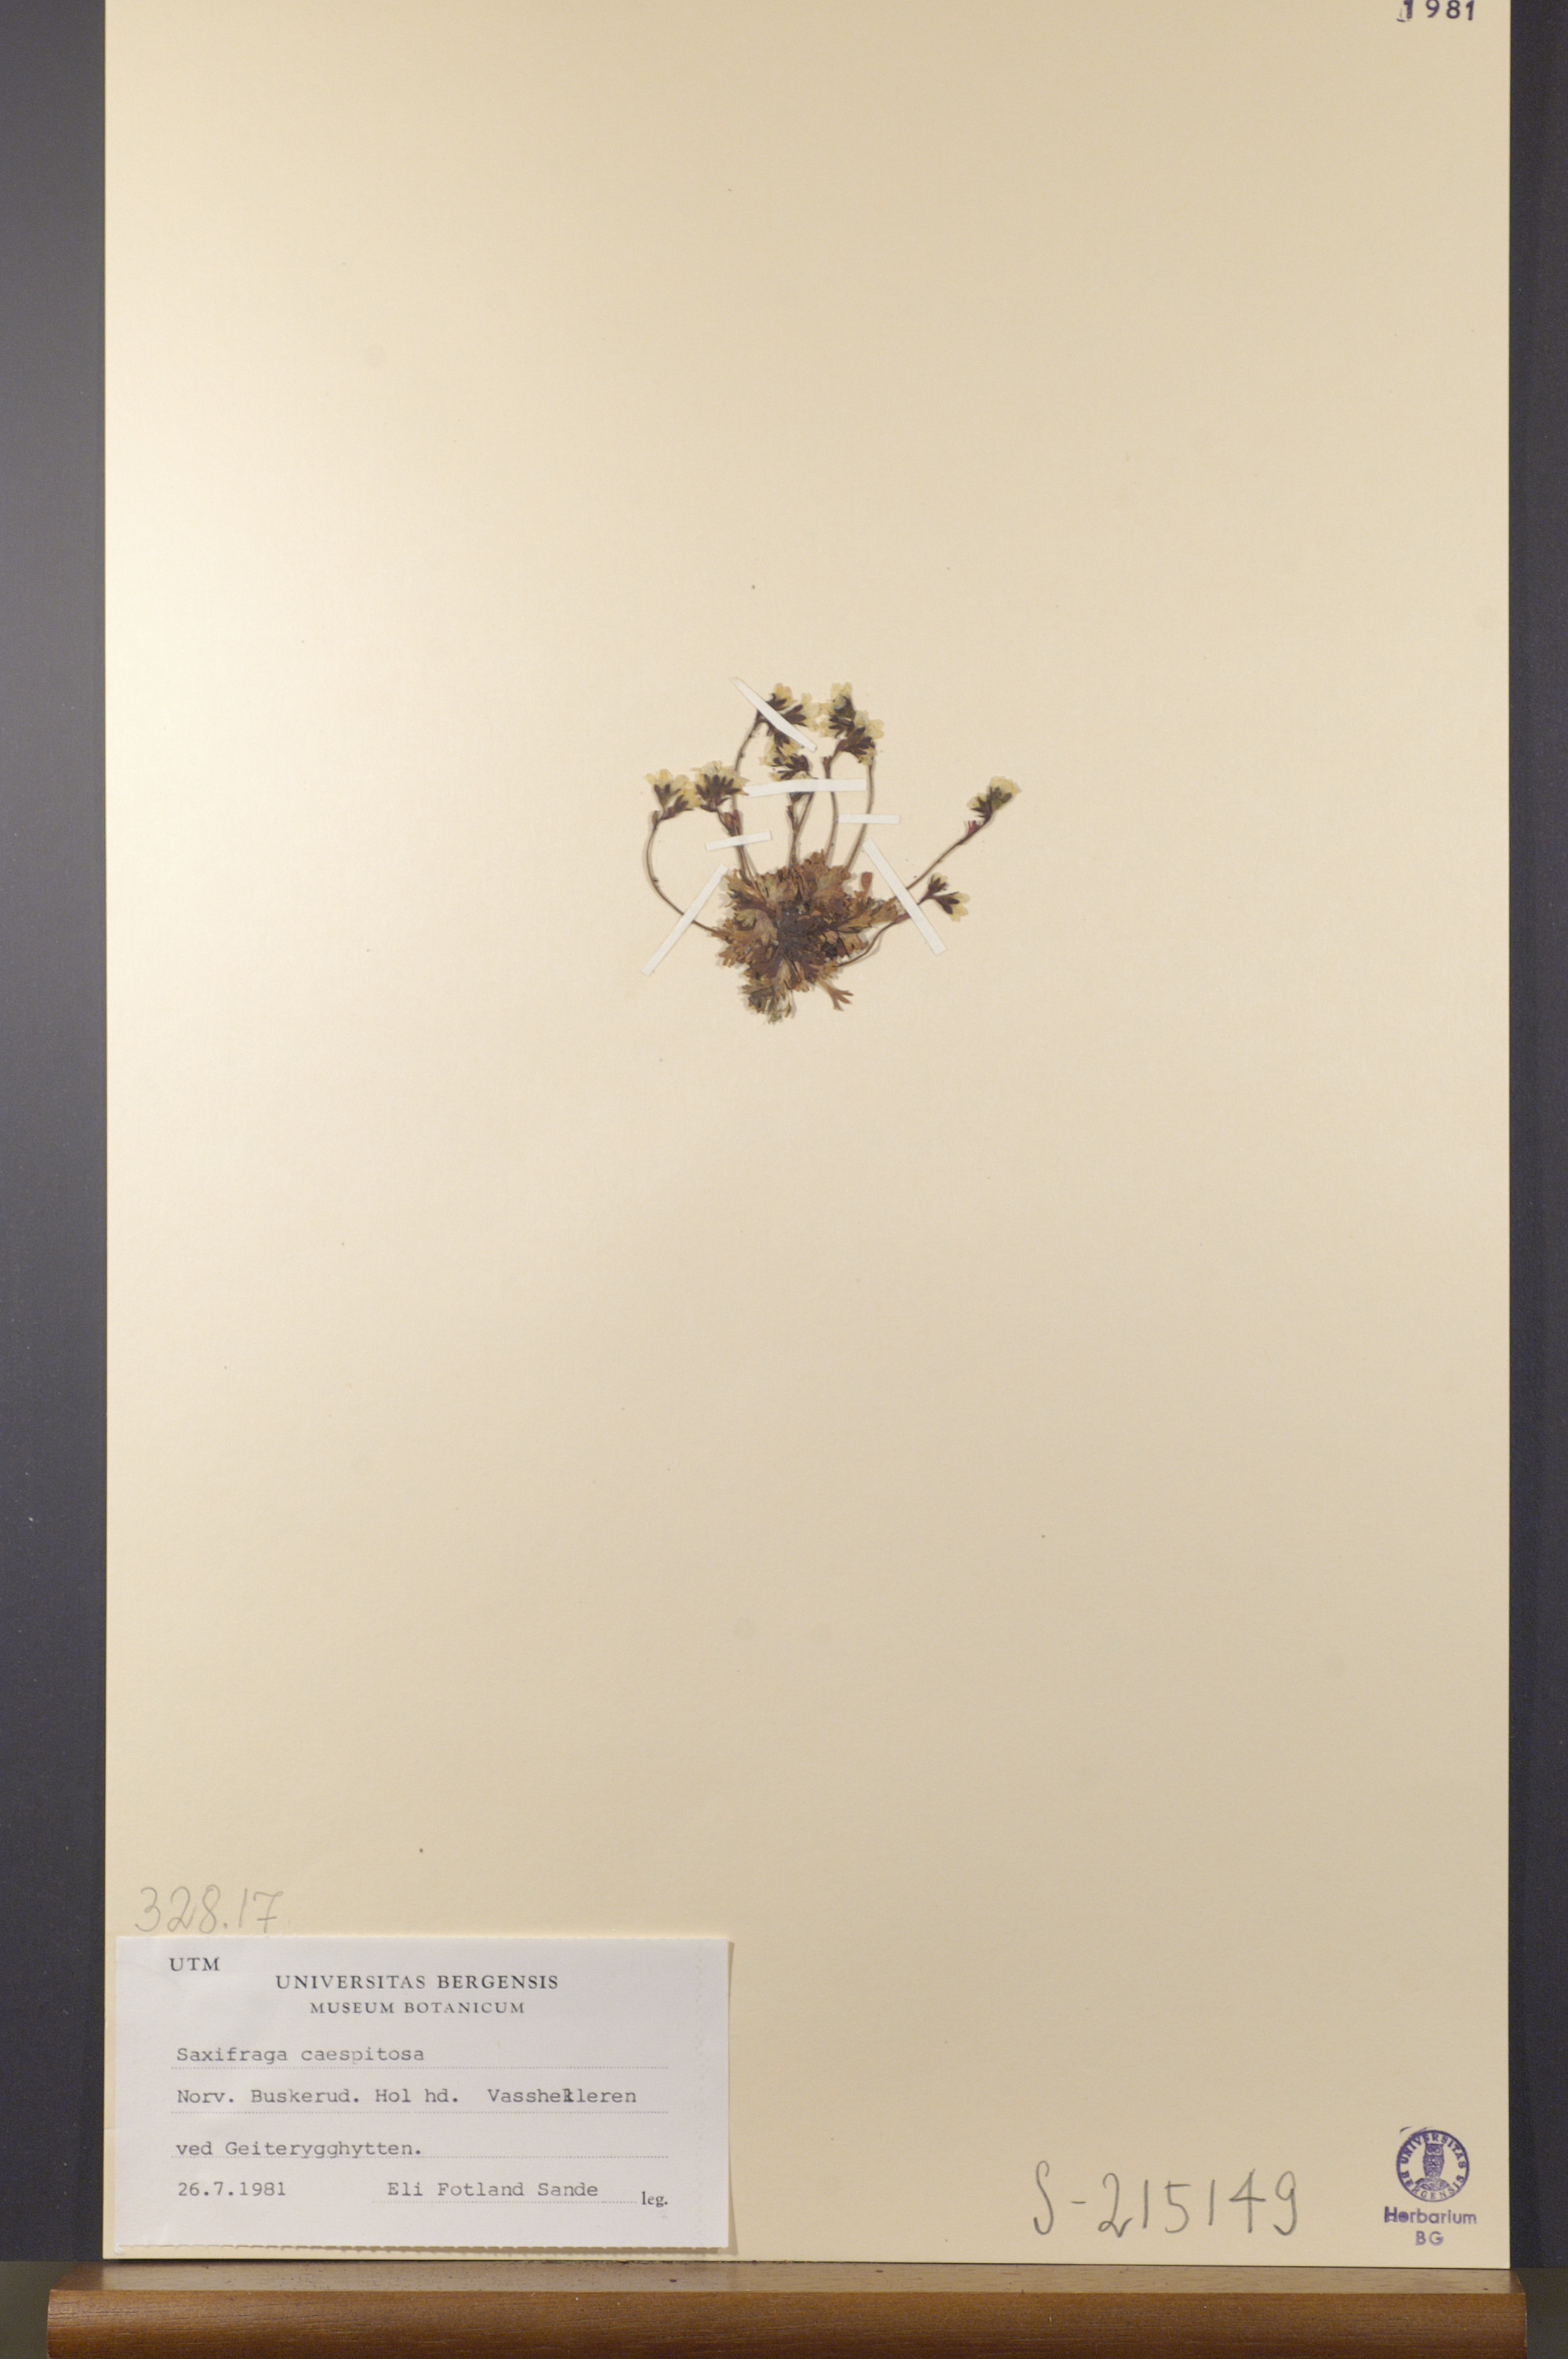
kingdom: Plantae
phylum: Tracheophyta
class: Magnoliopsida
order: Saxifragales
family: Saxifragaceae
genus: Saxifraga
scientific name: Saxifraga cespitosa
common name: Tufted saxifrage
